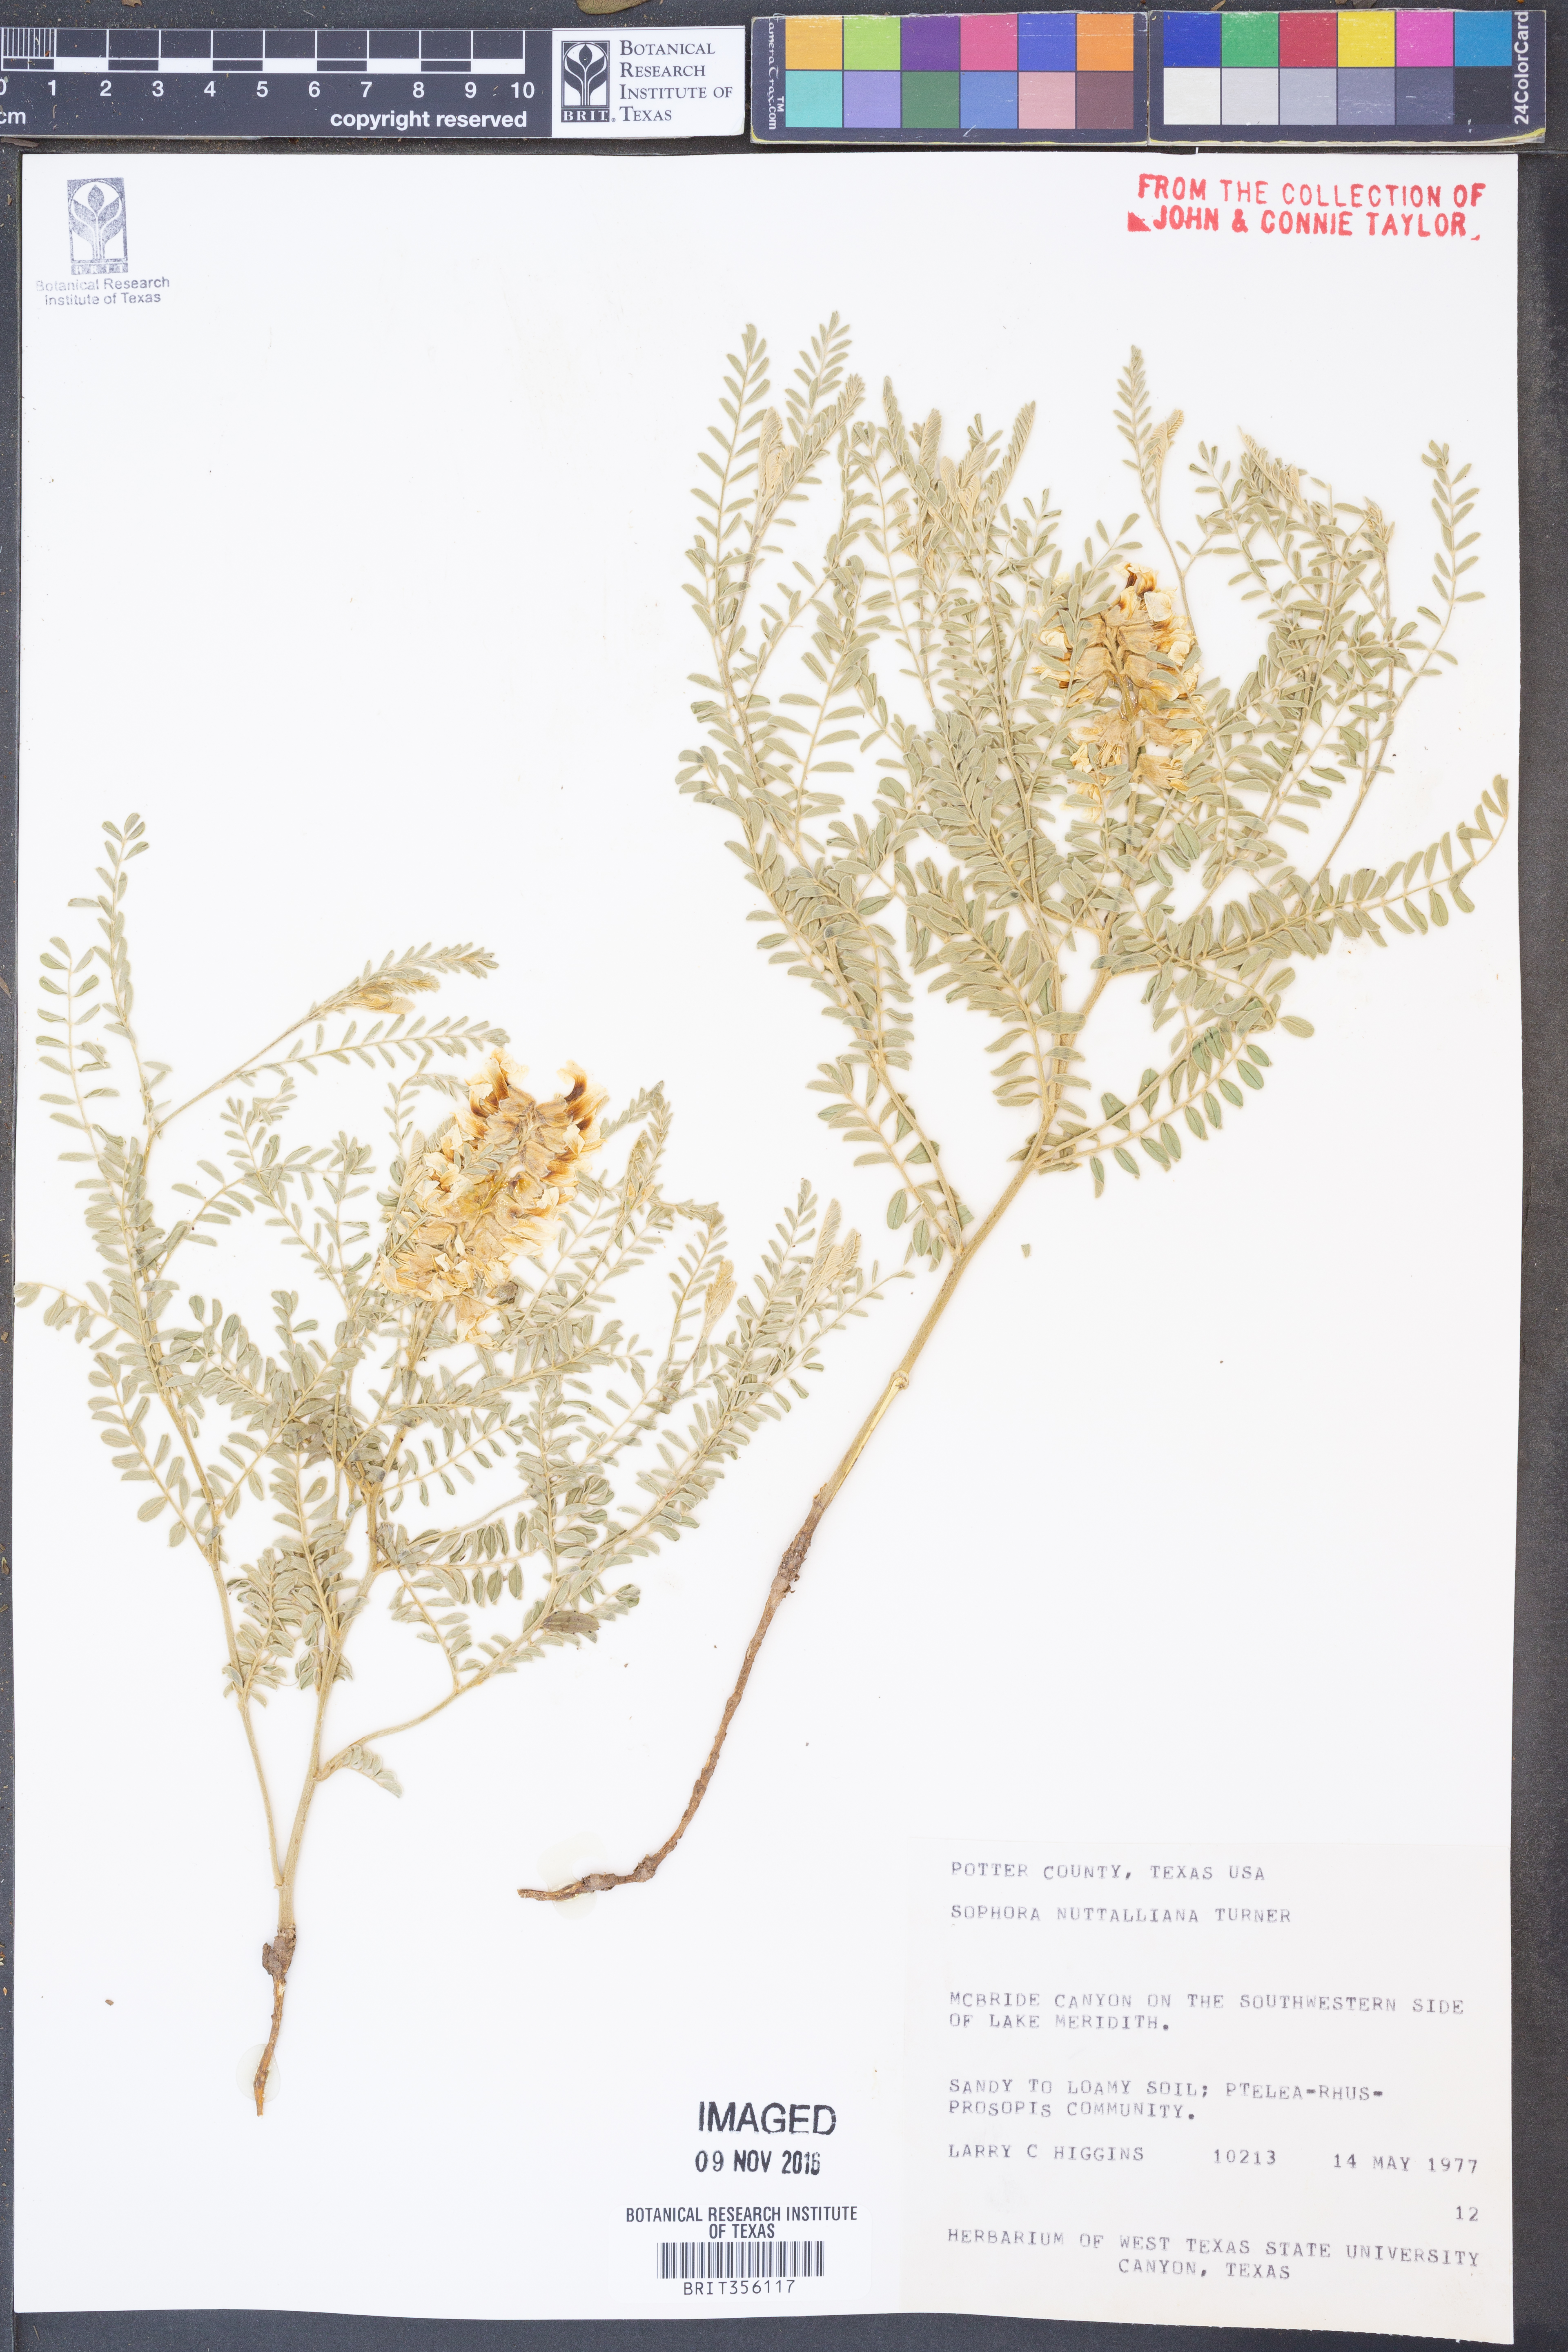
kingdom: Plantae
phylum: Tracheophyta
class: Magnoliopsida
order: Fabales
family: Fabaceae
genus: Sophora
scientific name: Sophora nuttalliana
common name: Silky sophora
